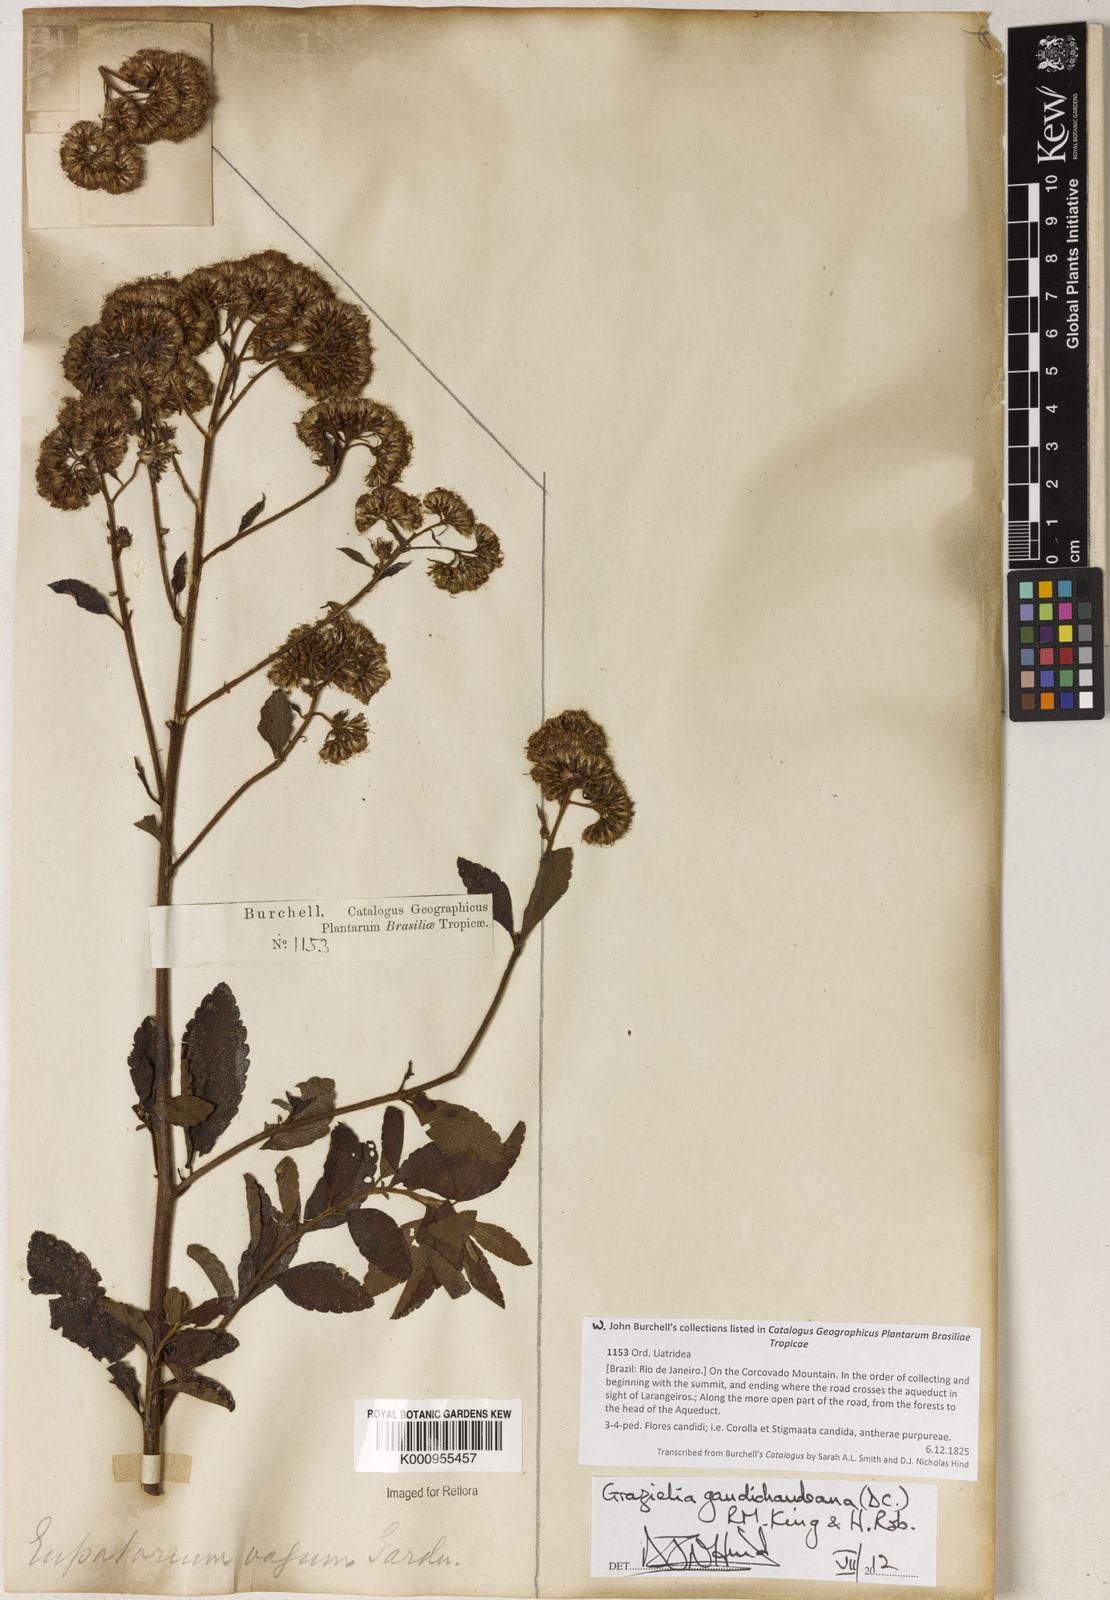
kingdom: Plantae
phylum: Tracheophyta
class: Magnoliopsida
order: Asterales
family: Asteraceae
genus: Grazielia
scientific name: Grazielia gaudichaudeana
